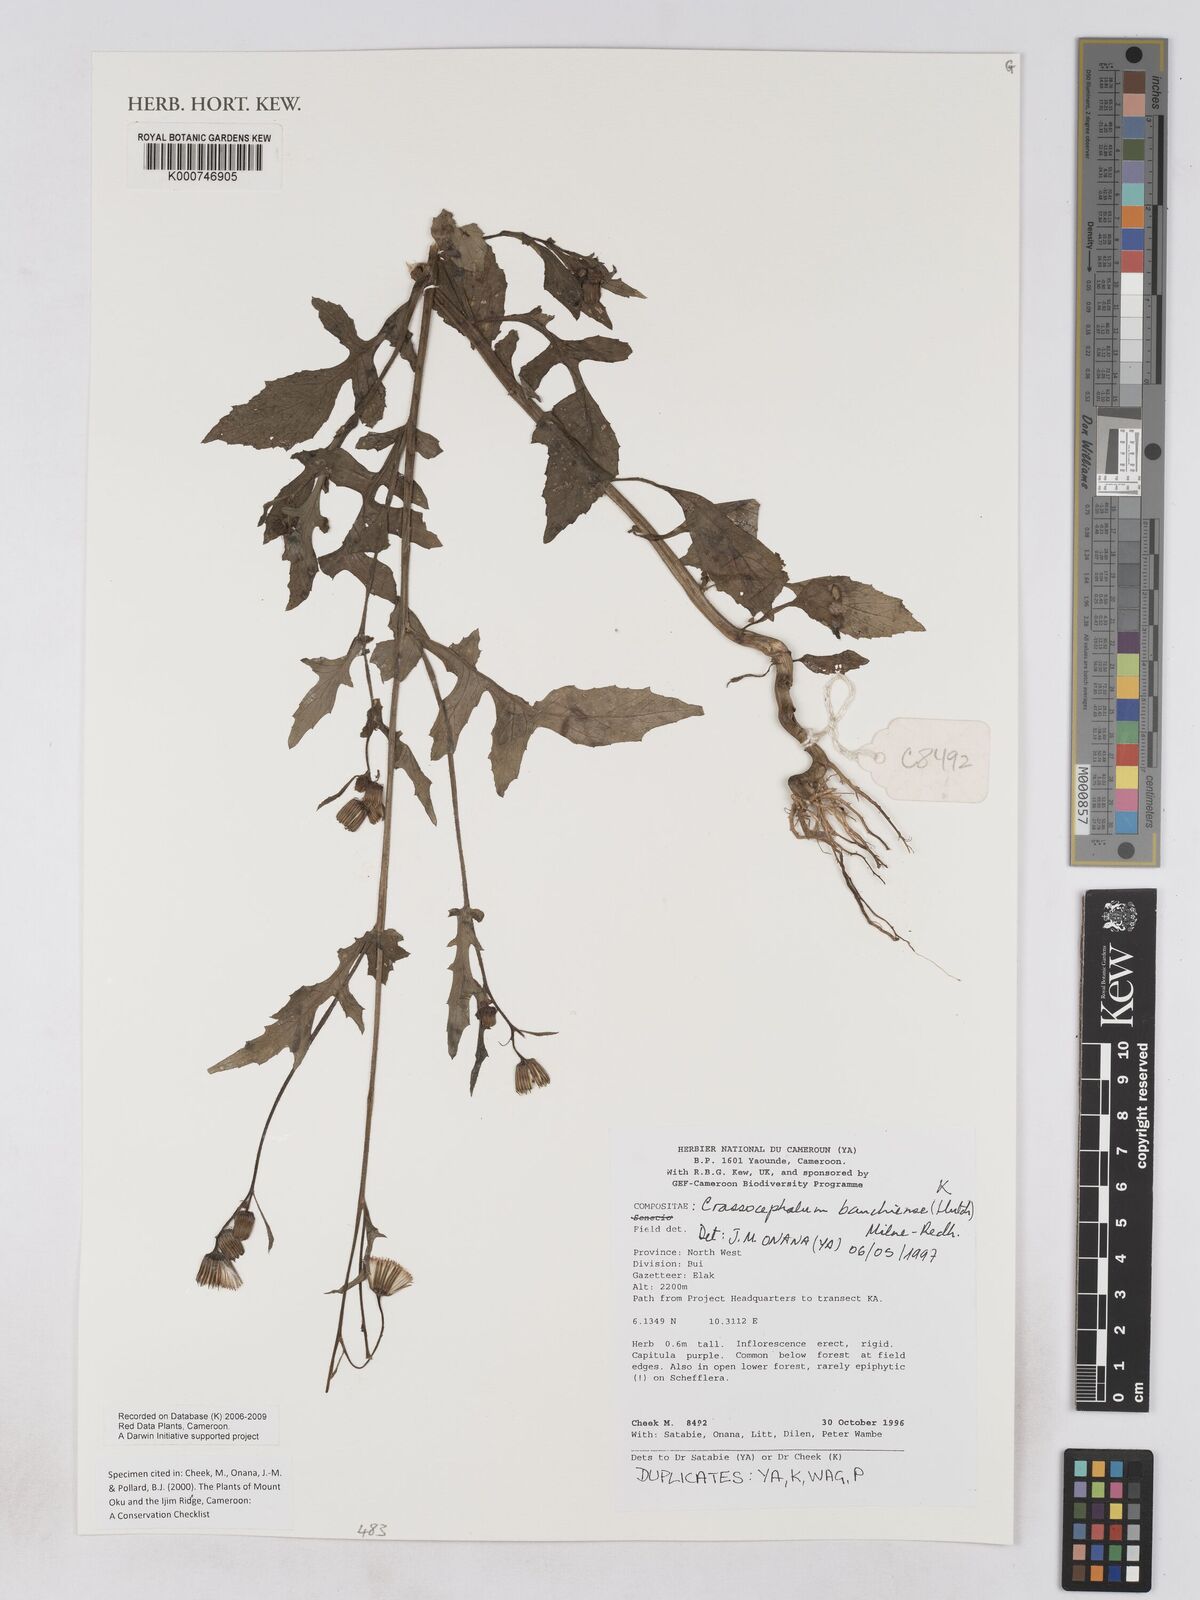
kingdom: Plantae
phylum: Tracheophyta
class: Magnoliopsida
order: Asterales
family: Asteraceae
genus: Crassocephalum
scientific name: Crassocephalum bauchiense
